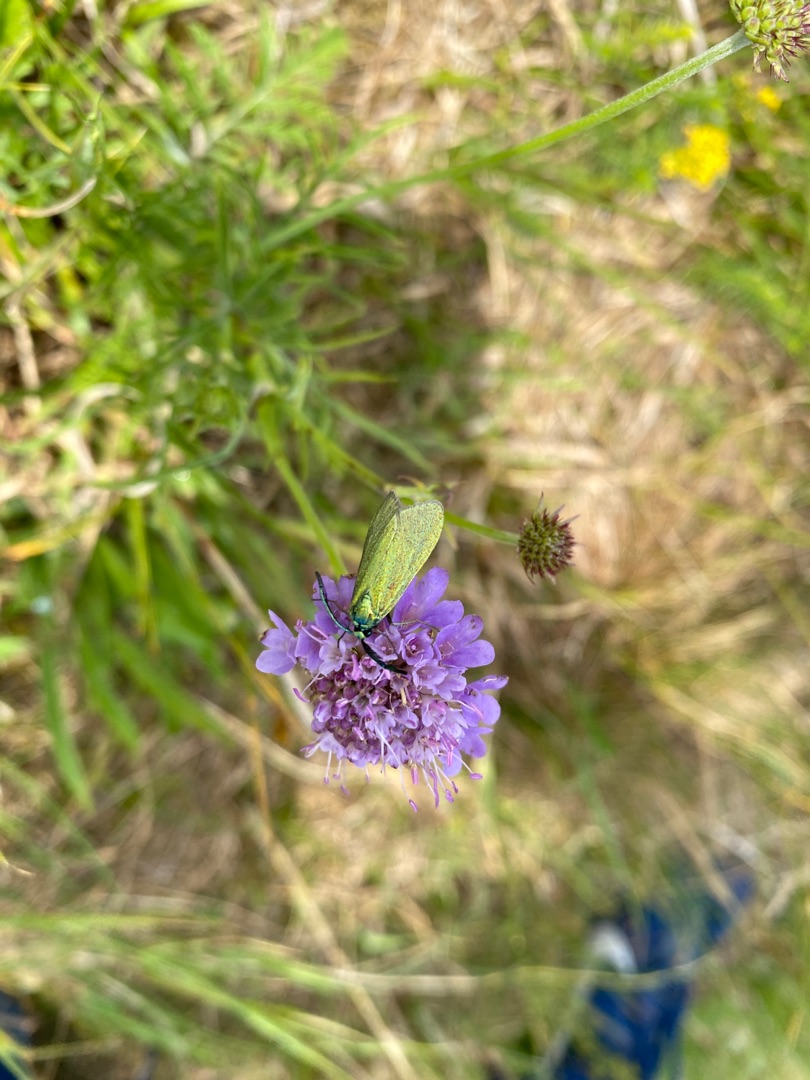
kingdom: Animalia
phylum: Arthropoda
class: Insecta
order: Lepidoptera
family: Zygaenidae
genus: Adscita
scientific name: Adscita statices
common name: Metalvinge
